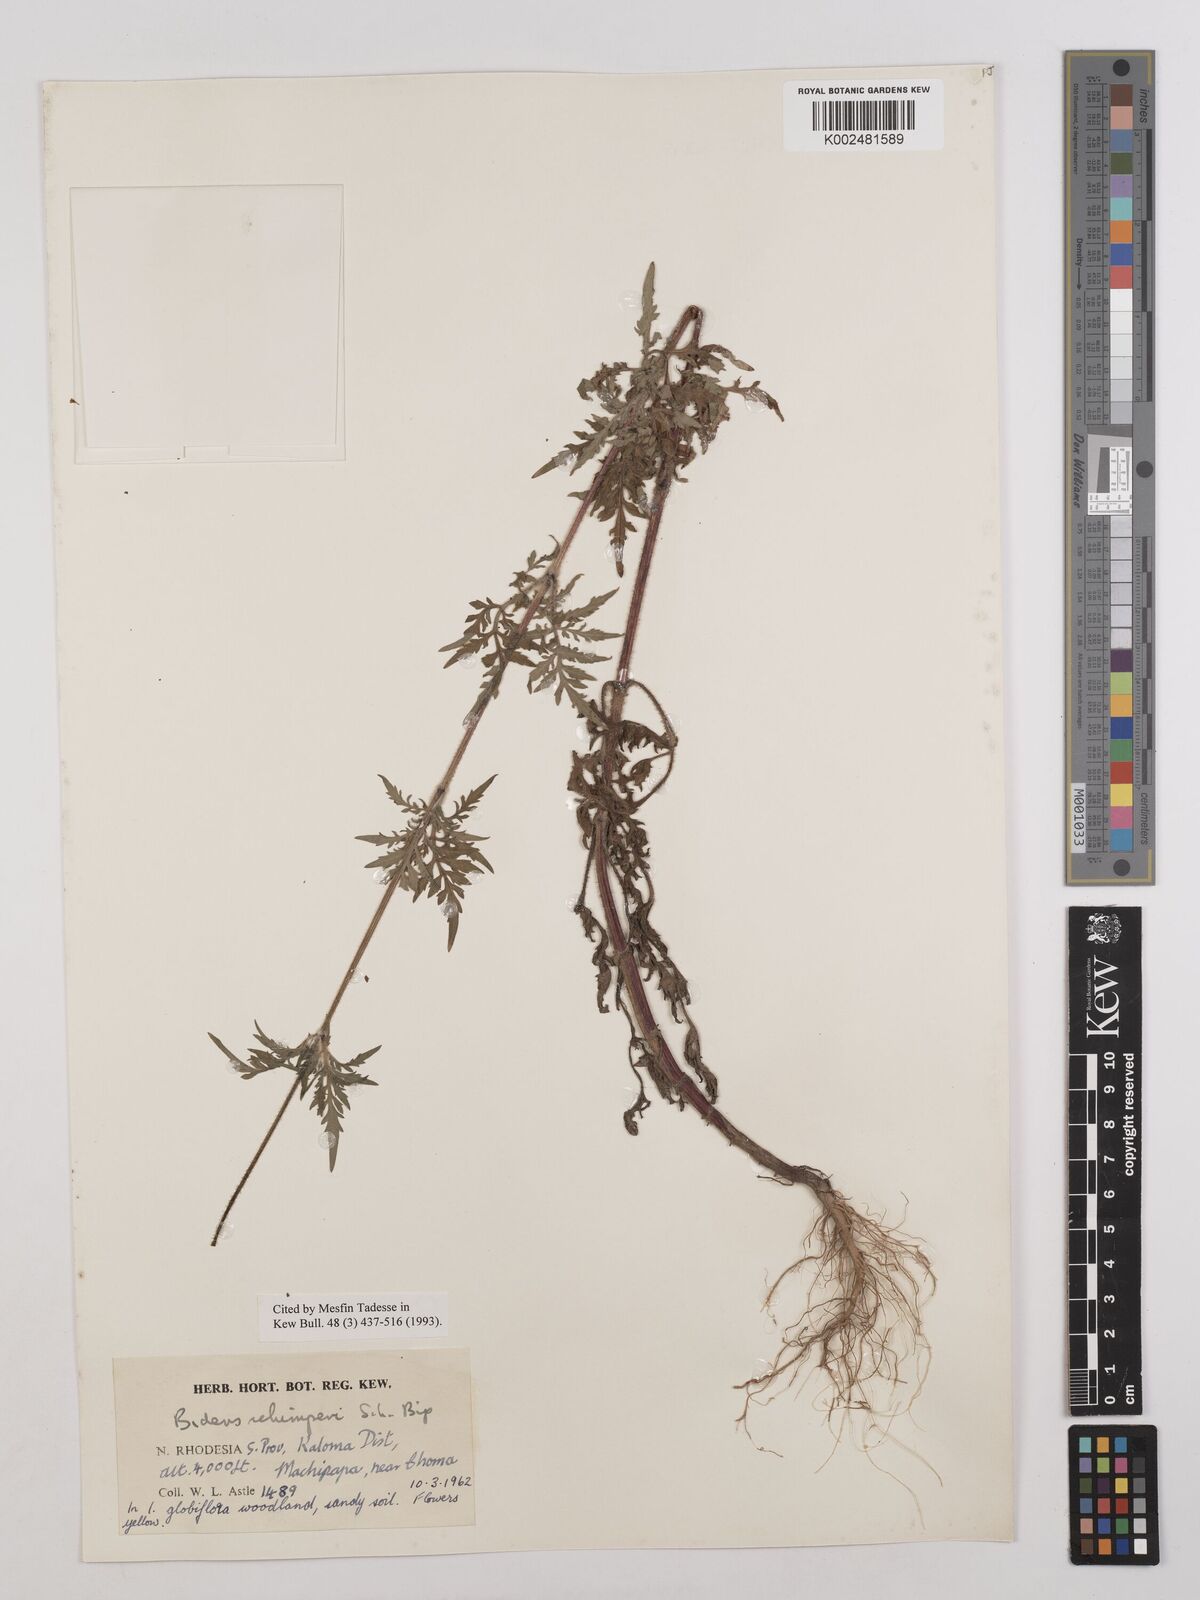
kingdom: Plantae
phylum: Tracheophyta
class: Magnoliopsida
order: Asterales
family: Asteraceae
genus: Bidens
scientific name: Bidens schimperi
